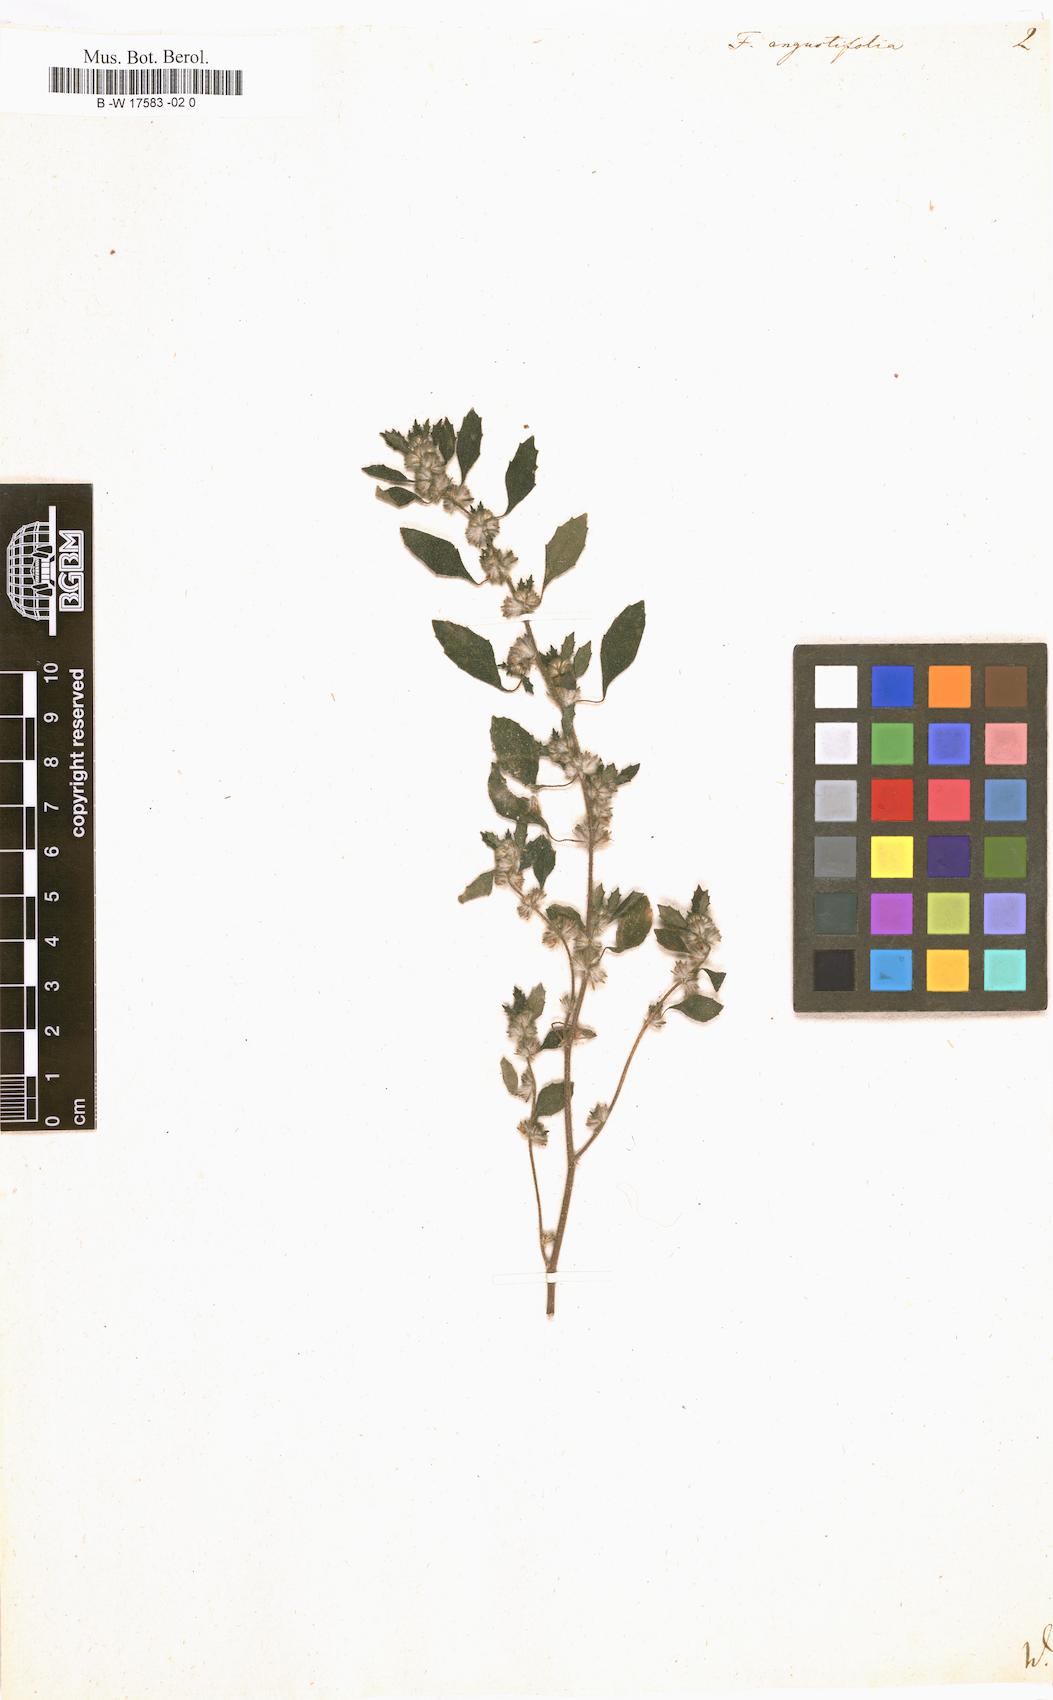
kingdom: Plantae
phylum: Tracheophyta
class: Magnoliopsida
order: Rosales
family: Urticaceae
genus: Forskohlea
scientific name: Forskohlea
